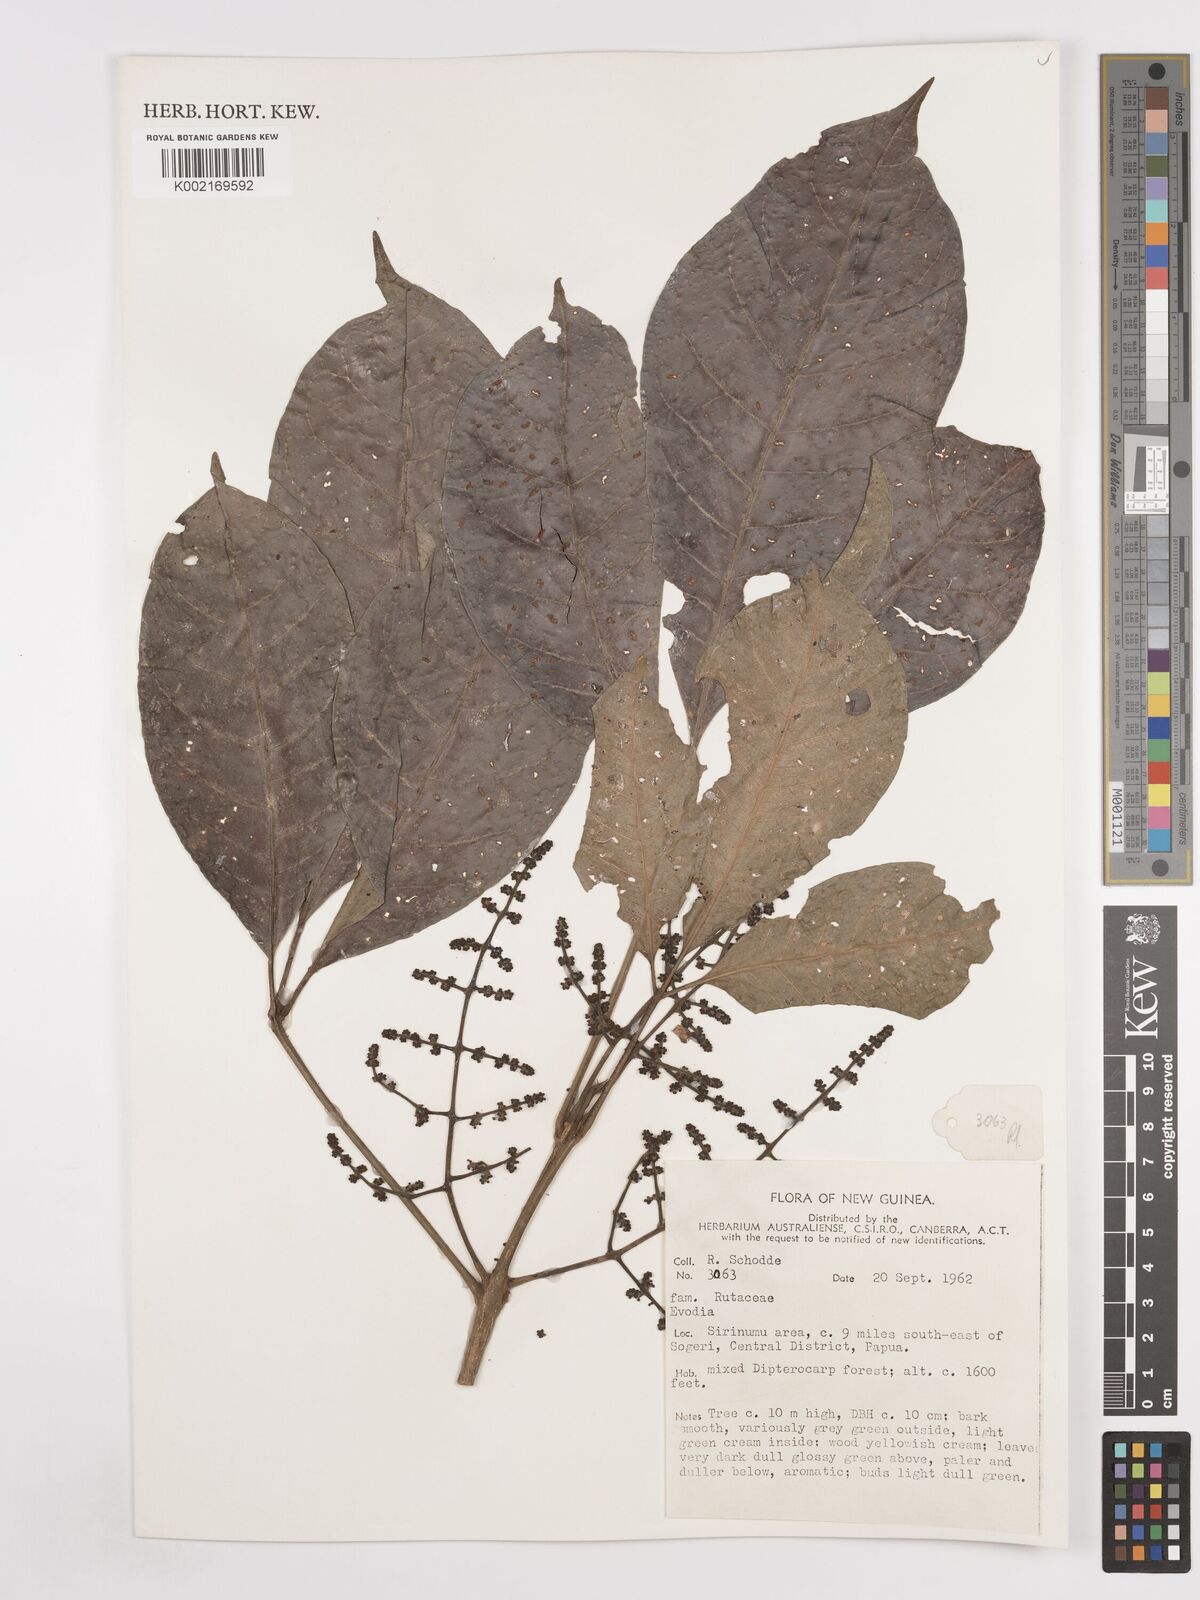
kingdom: Plantae
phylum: Tracheophyta
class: Magnoliopsida
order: Sapindales
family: Rutaceae
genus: Euodia
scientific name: Euodia
